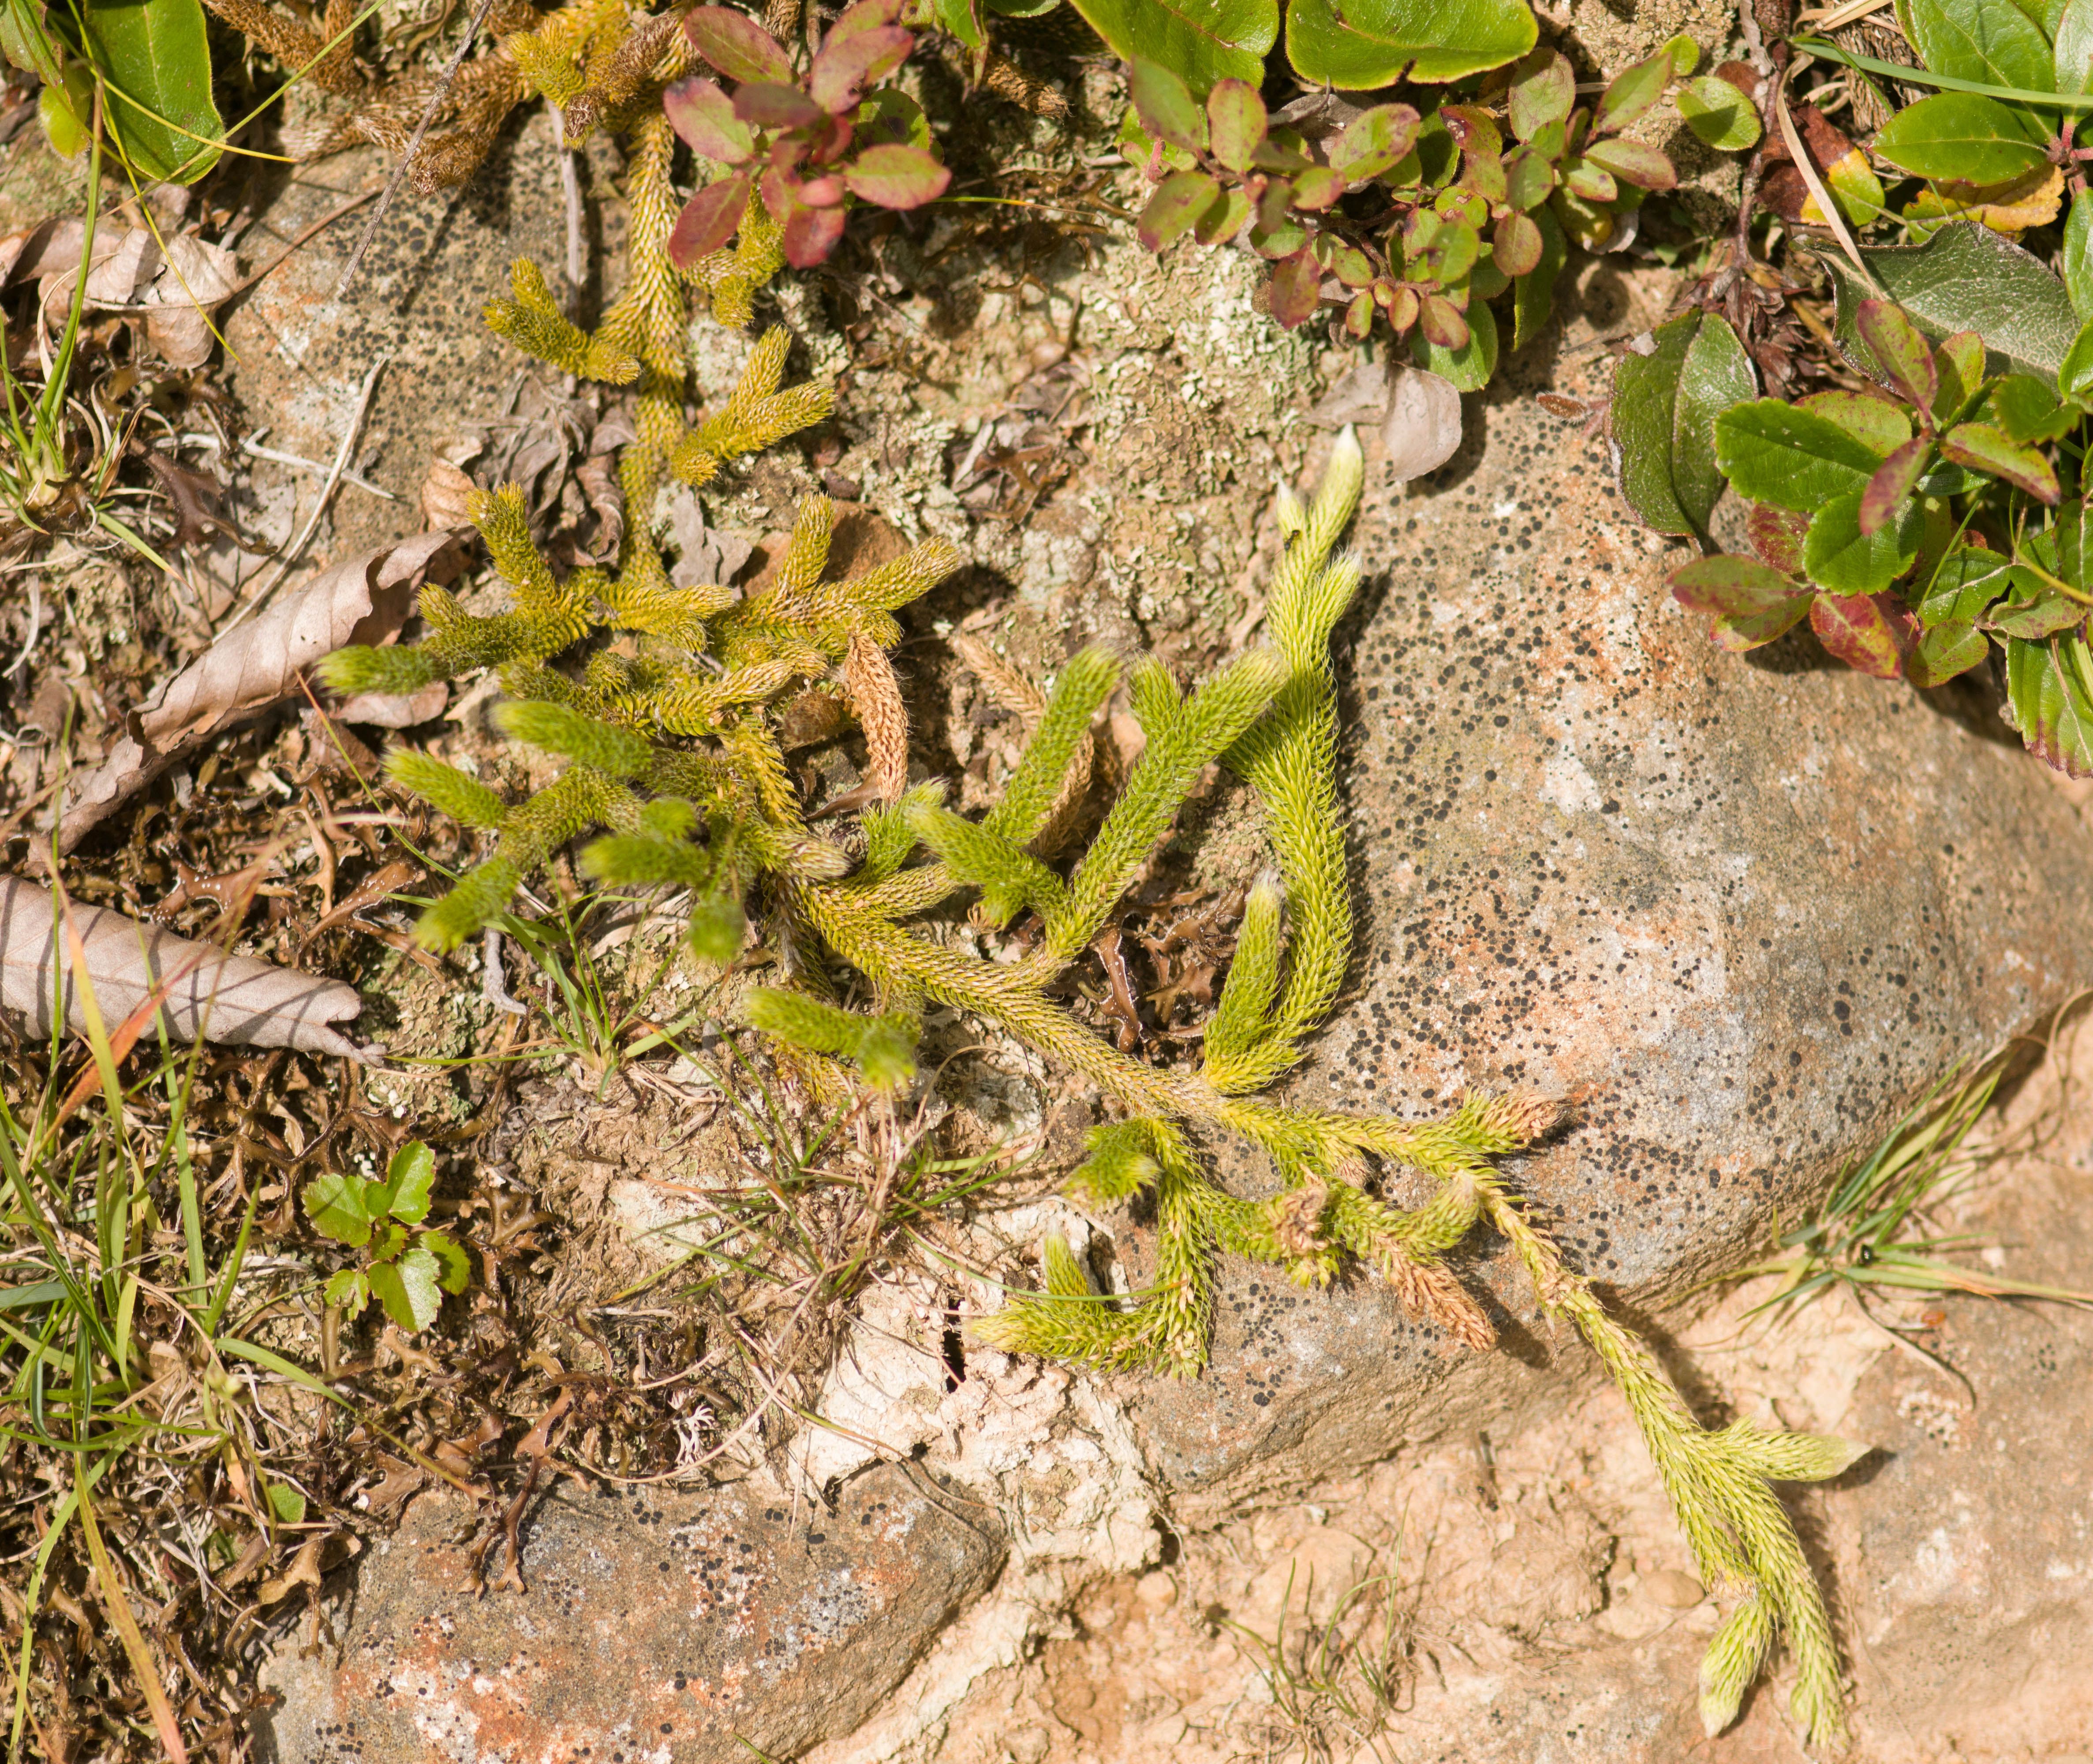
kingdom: Plantae
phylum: Tracheophyta
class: Lycopodiopsida
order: Lycopodiales
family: Lycopodiaceae
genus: Lycopodium
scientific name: Lycopodium clavatum
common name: Stag's-horn clubmoss
